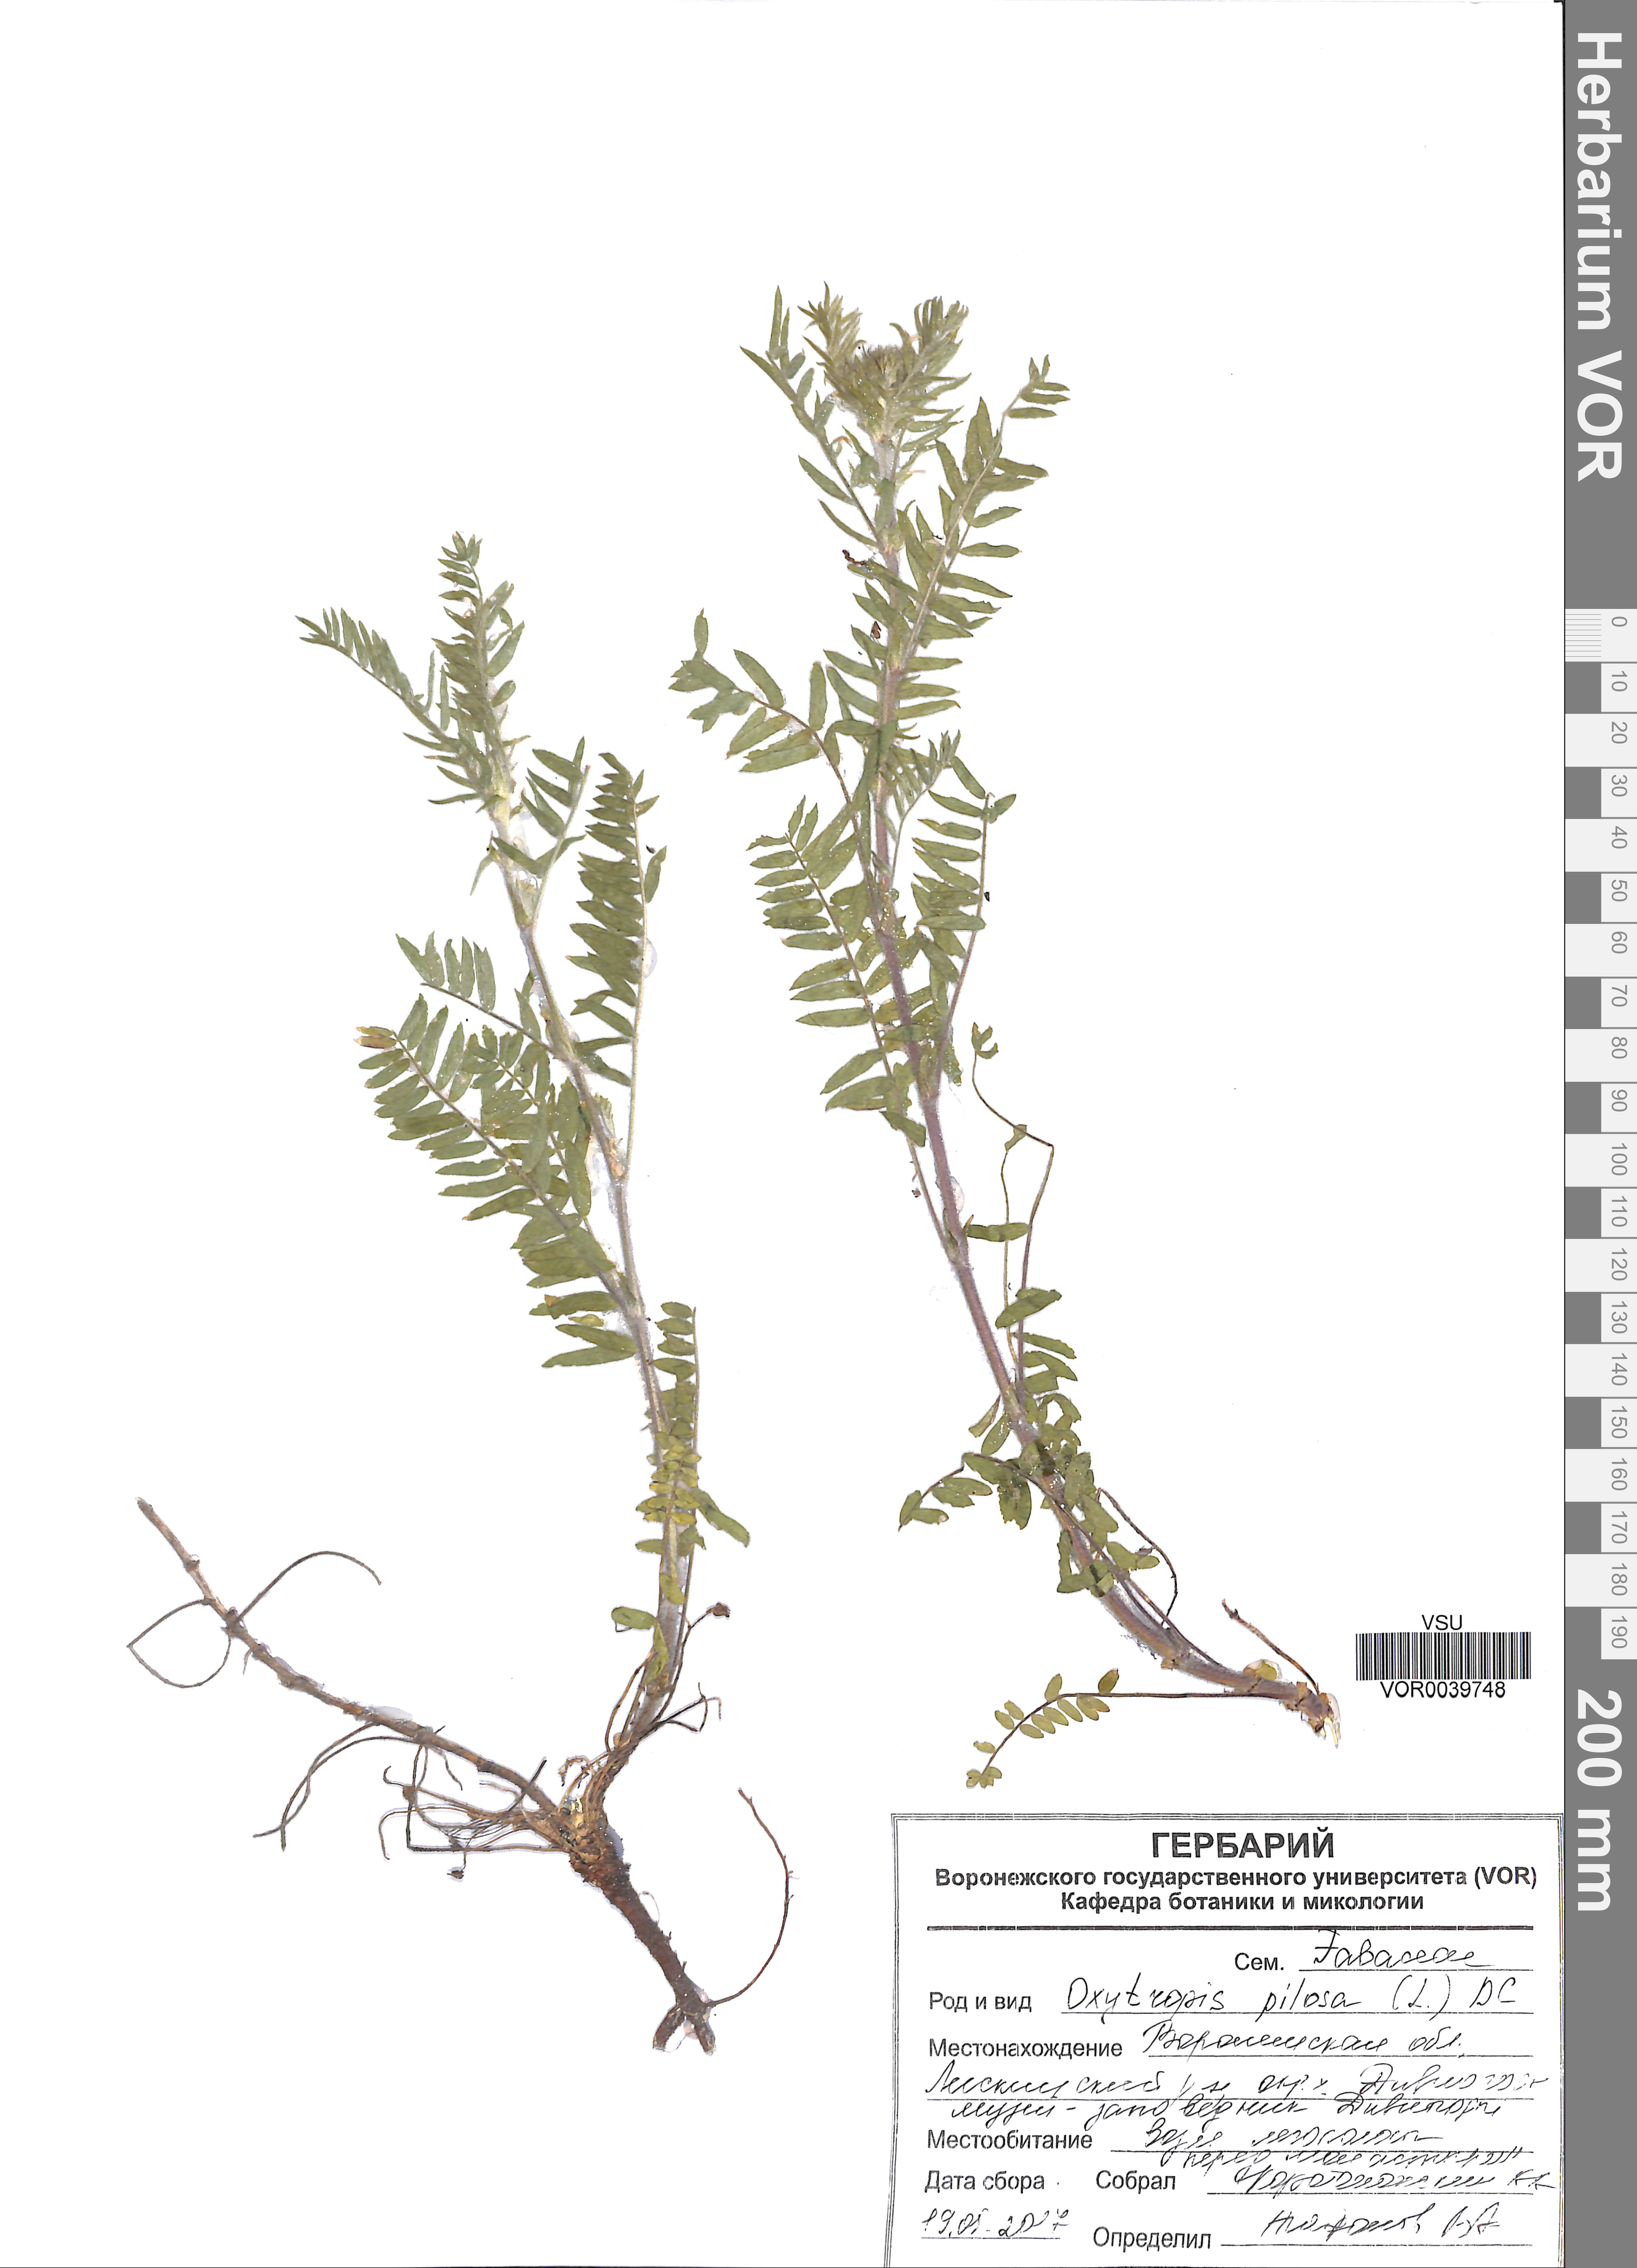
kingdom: Plantae
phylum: Tracheophyta
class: Magnoliopsida
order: Fabales
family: Fabaceae
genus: Oxytropis
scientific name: Oxytropis pilosa
